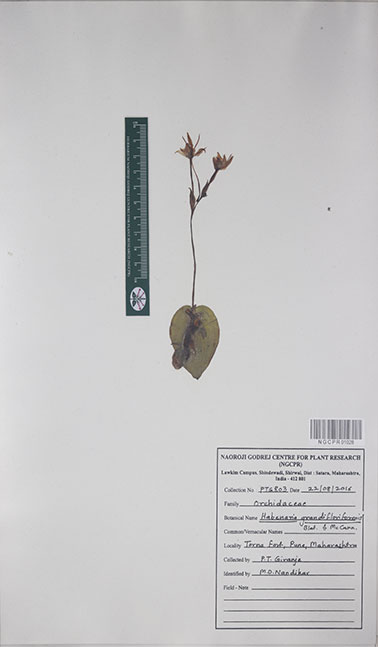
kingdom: Plantae
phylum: Tracheophyta
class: Liliopsida
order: Asparagales
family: Orchidaceae
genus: Habenaria
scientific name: Habenaria grandifloriformis
